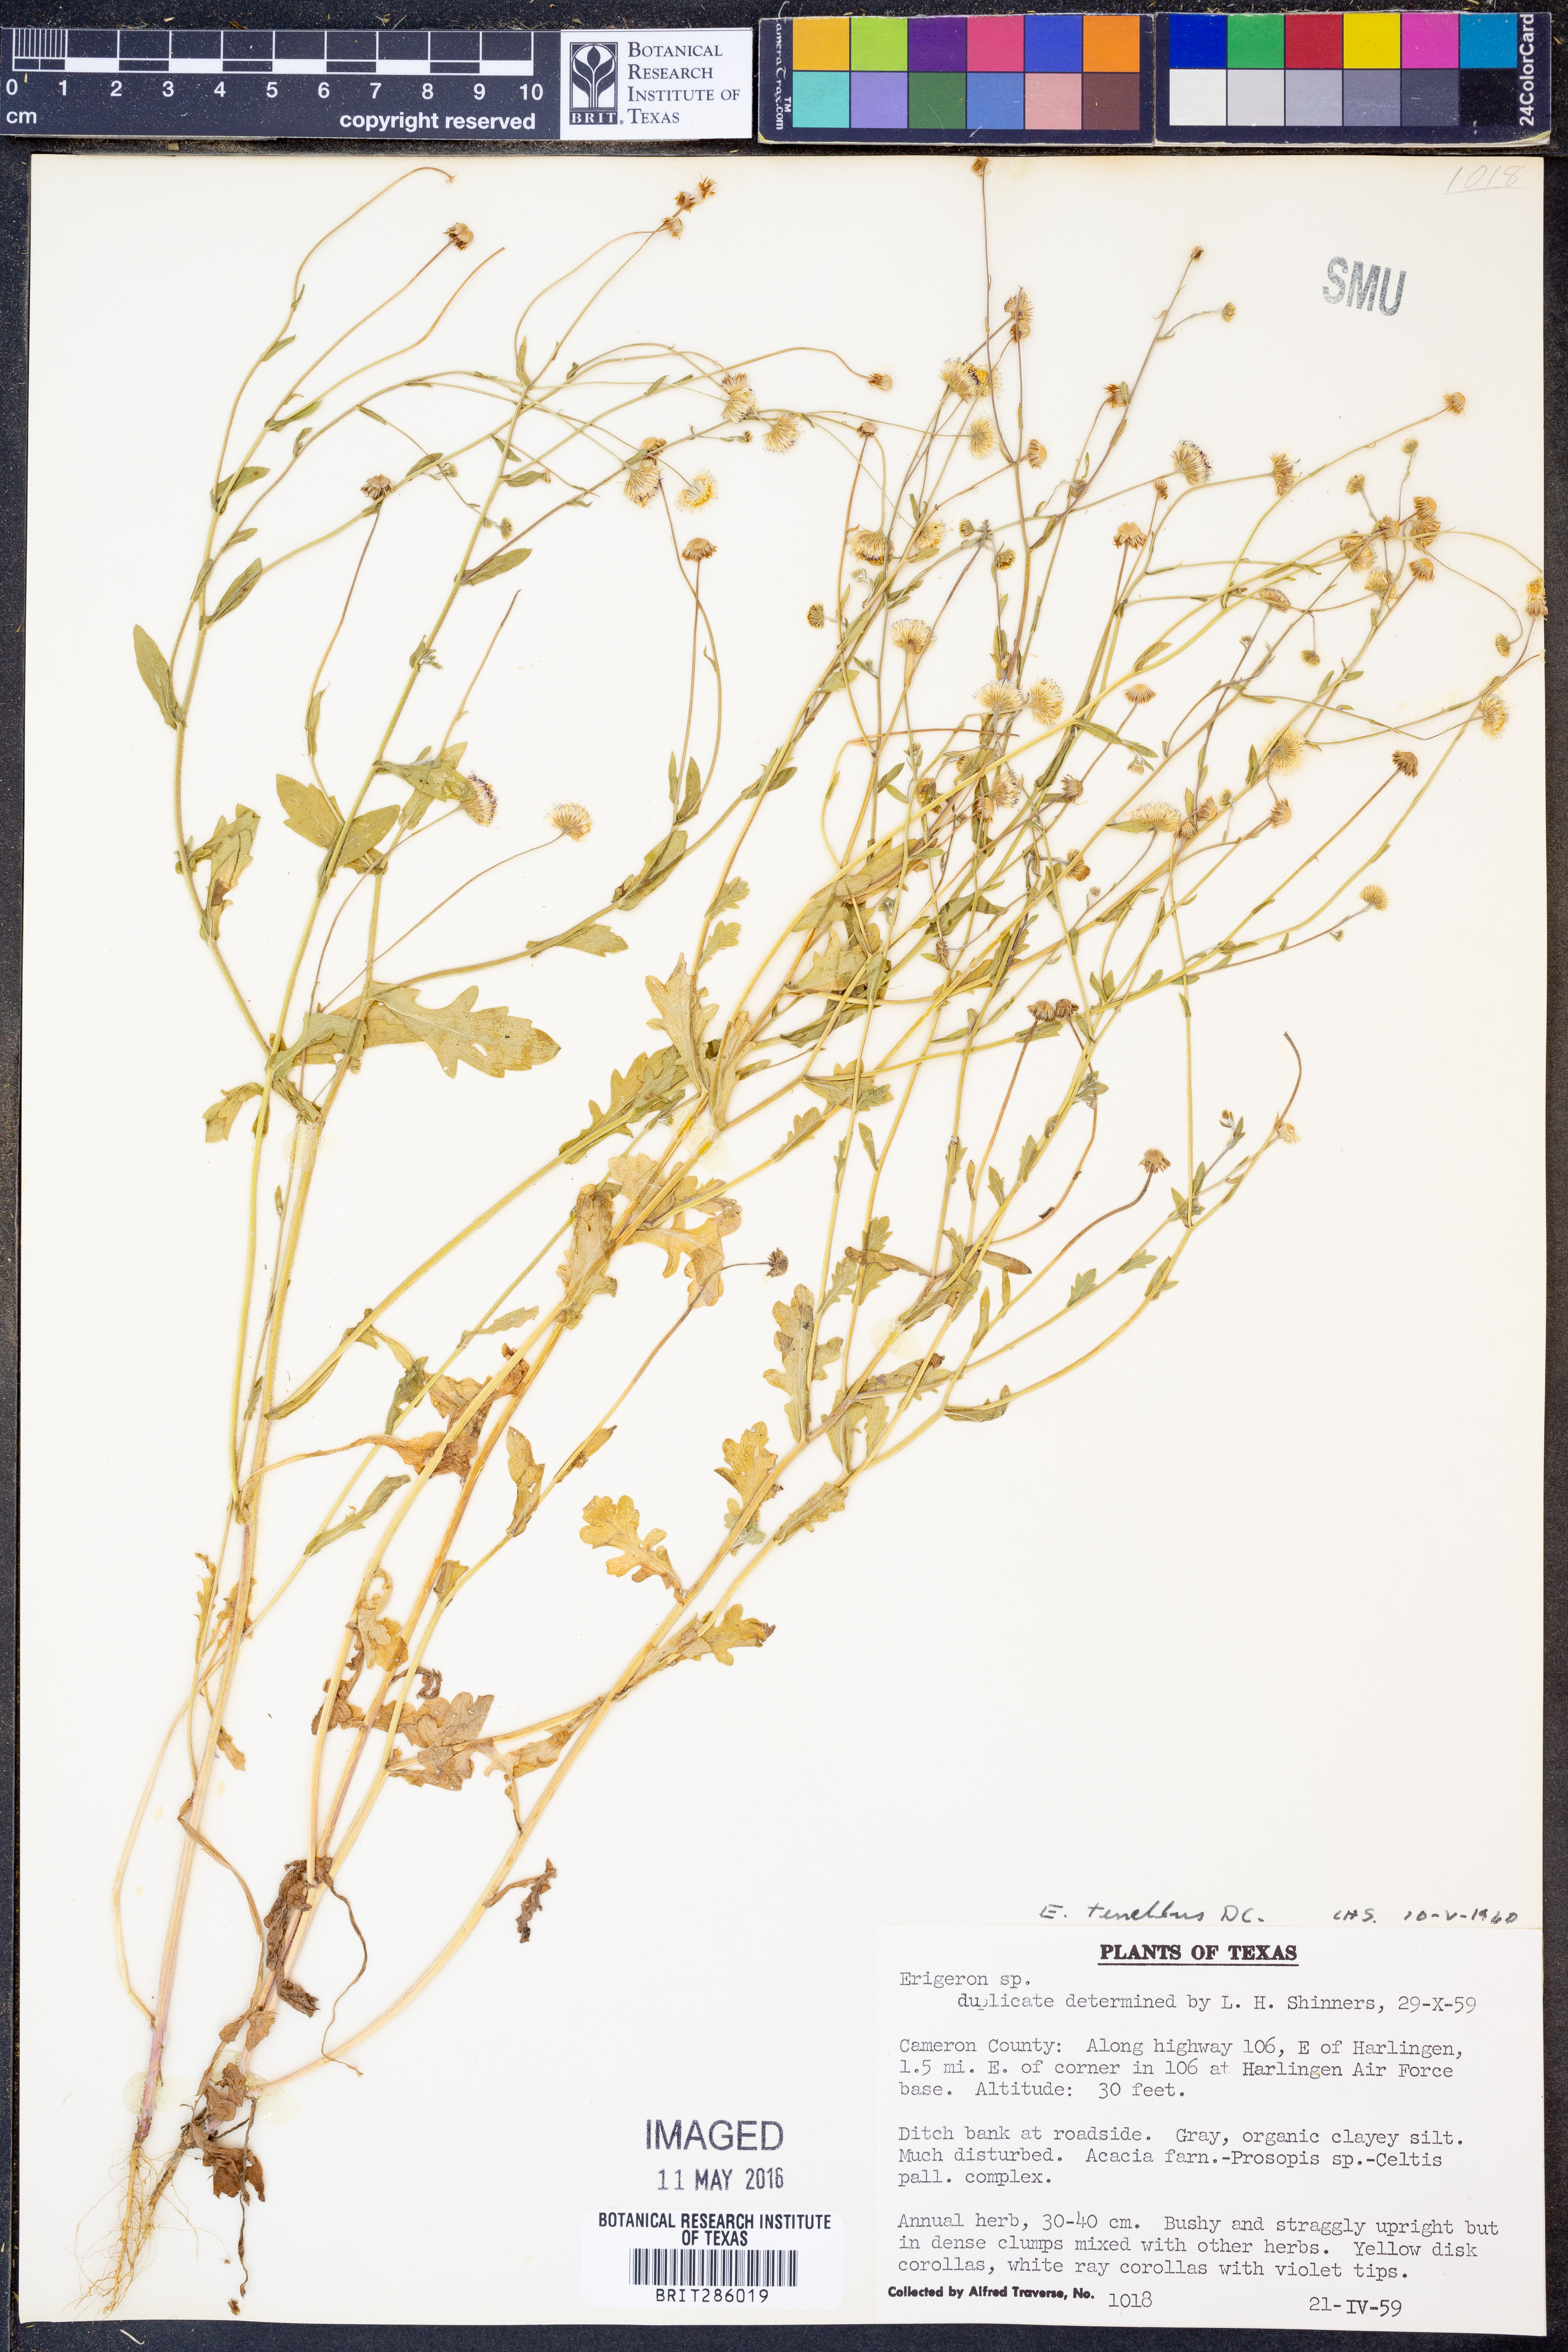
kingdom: Plantae
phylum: Tracheophyta
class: Magnoliopsida
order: Asterales
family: Asteraceae
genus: Erigeron
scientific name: Erigeron tenellus
